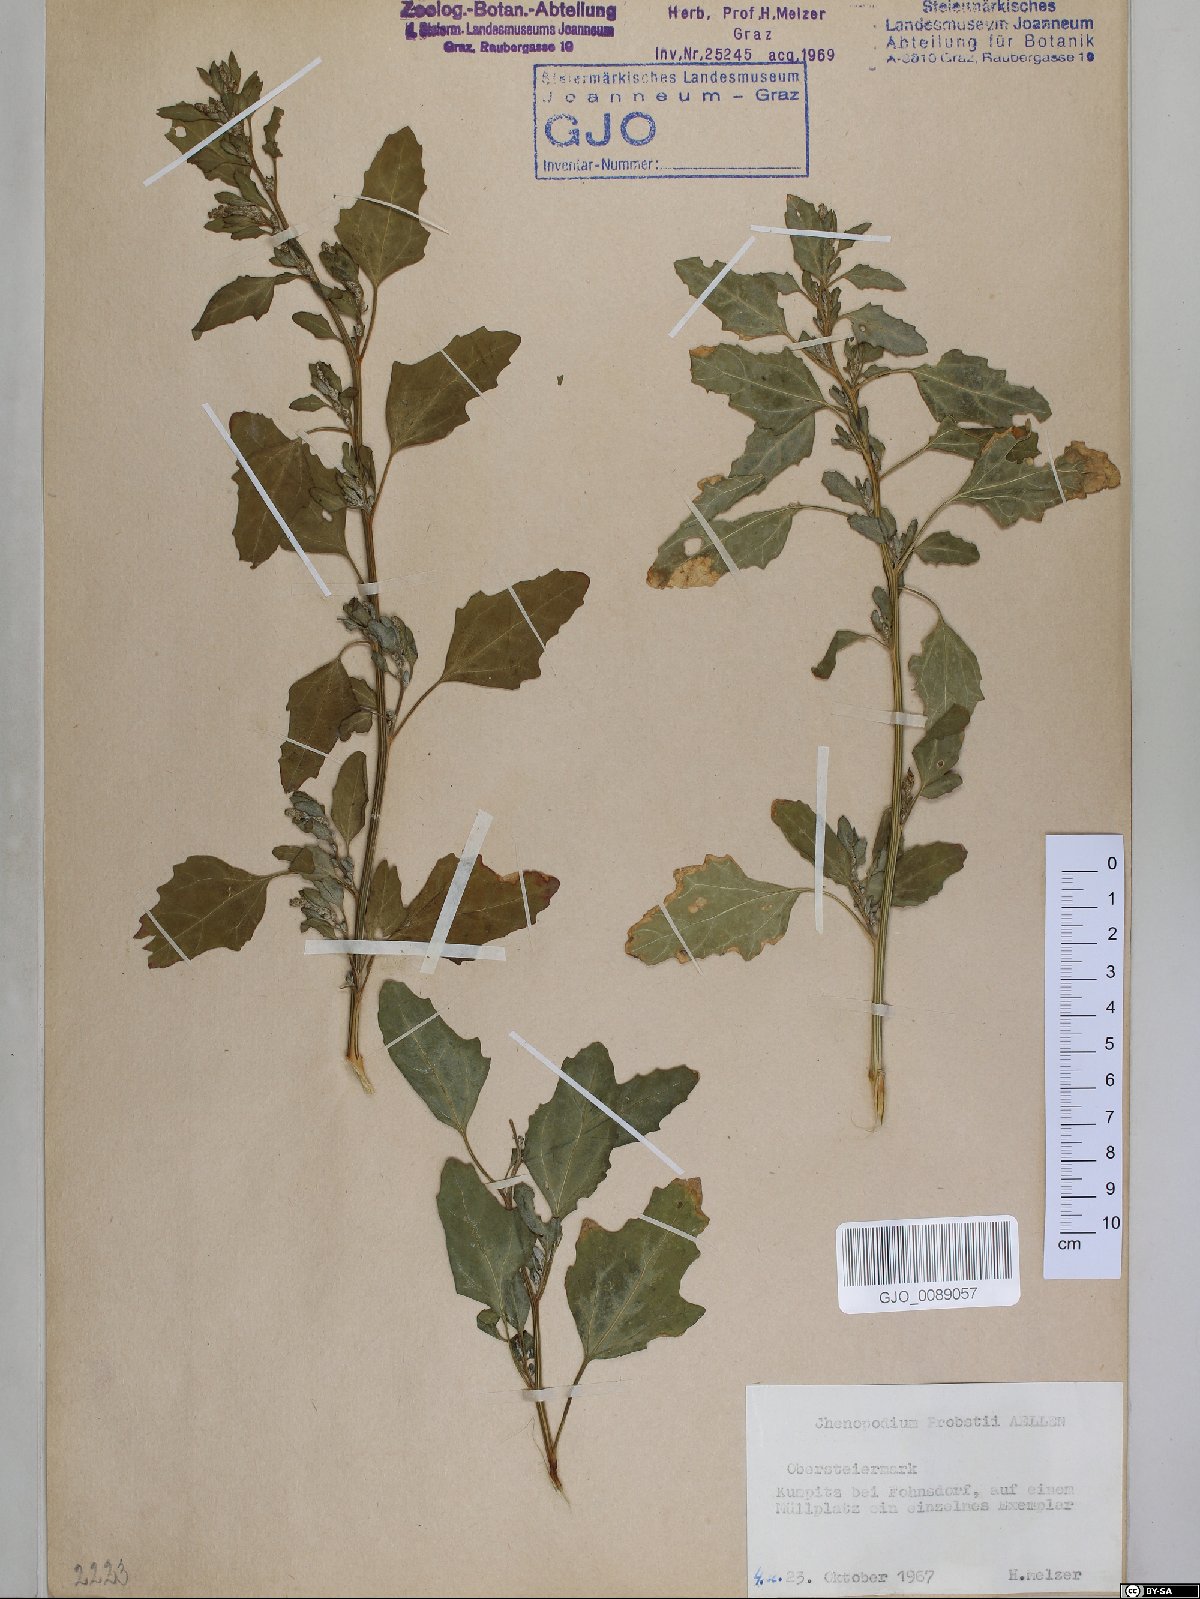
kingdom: Plantae
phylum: Tracheophyta
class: Magnoliopsida
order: Caryophyllales
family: Amaranthaceae
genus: Chenopodium
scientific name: Chenopodium probstii
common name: Probst's goosefoot
